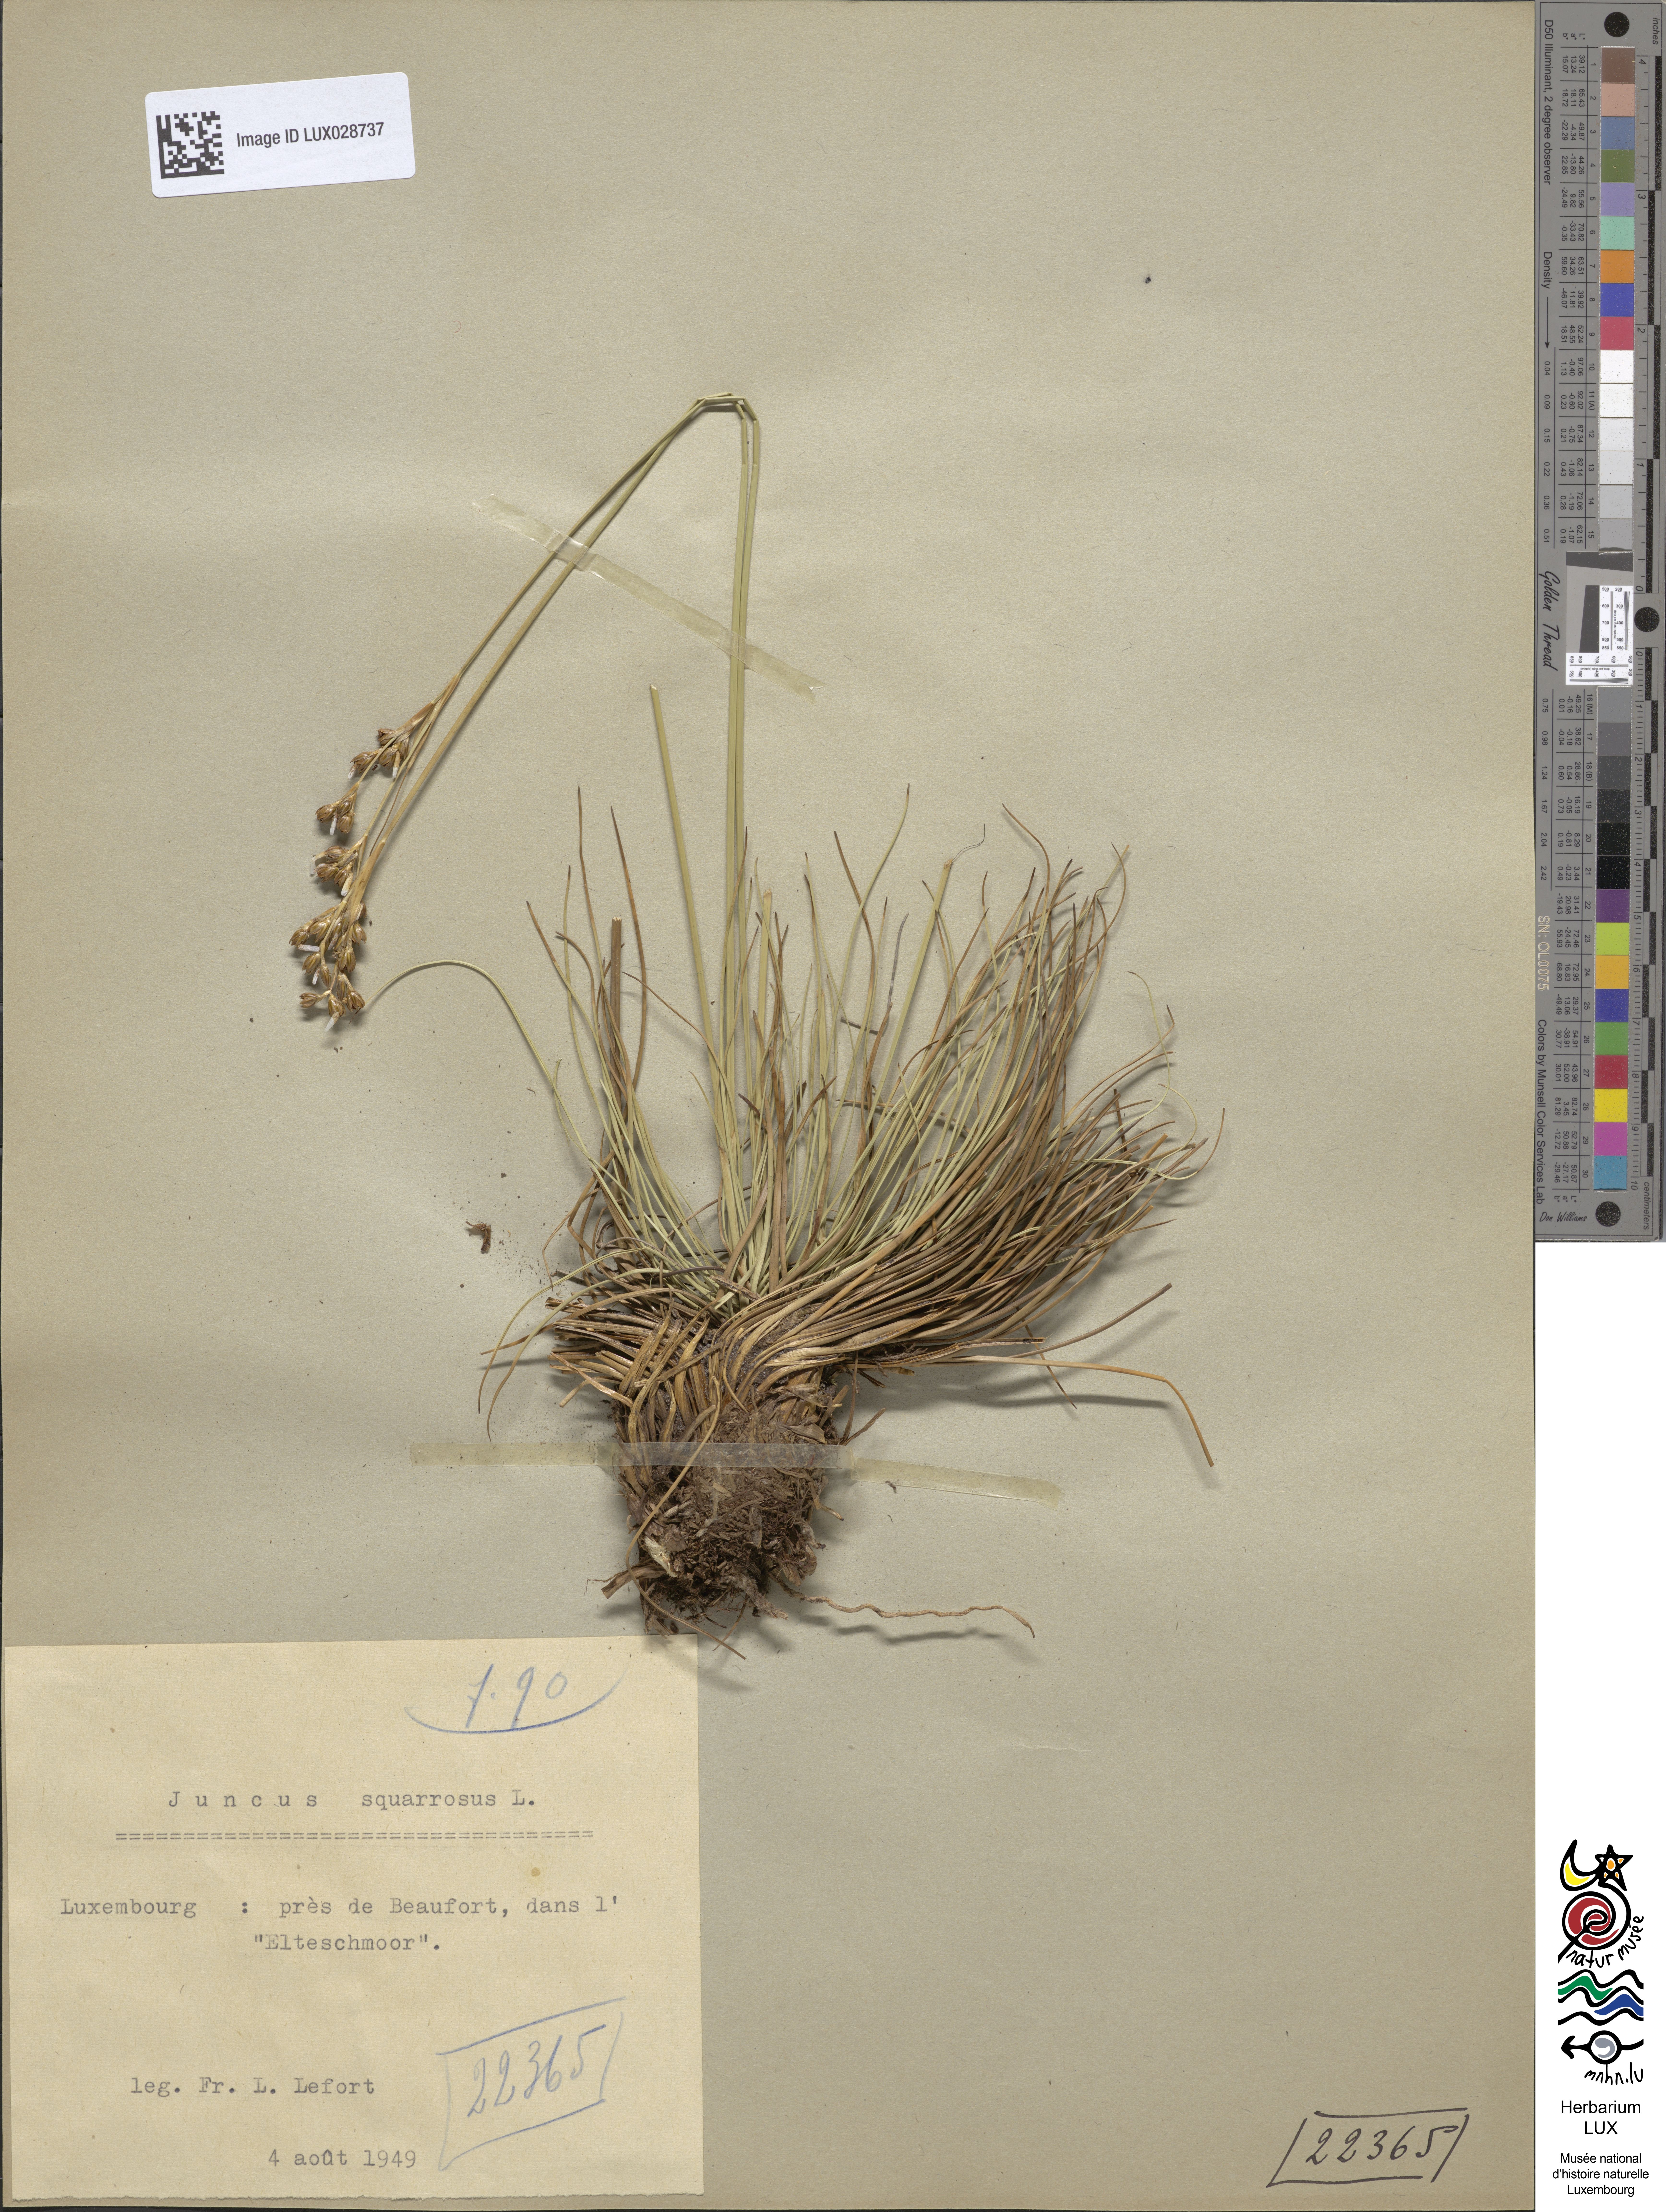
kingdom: Plantae
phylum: Tracheophyta
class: Liliopsida
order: Poales
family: Juncaceae
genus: Juncus
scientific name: Juncus squarrosus
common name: Heath rush
